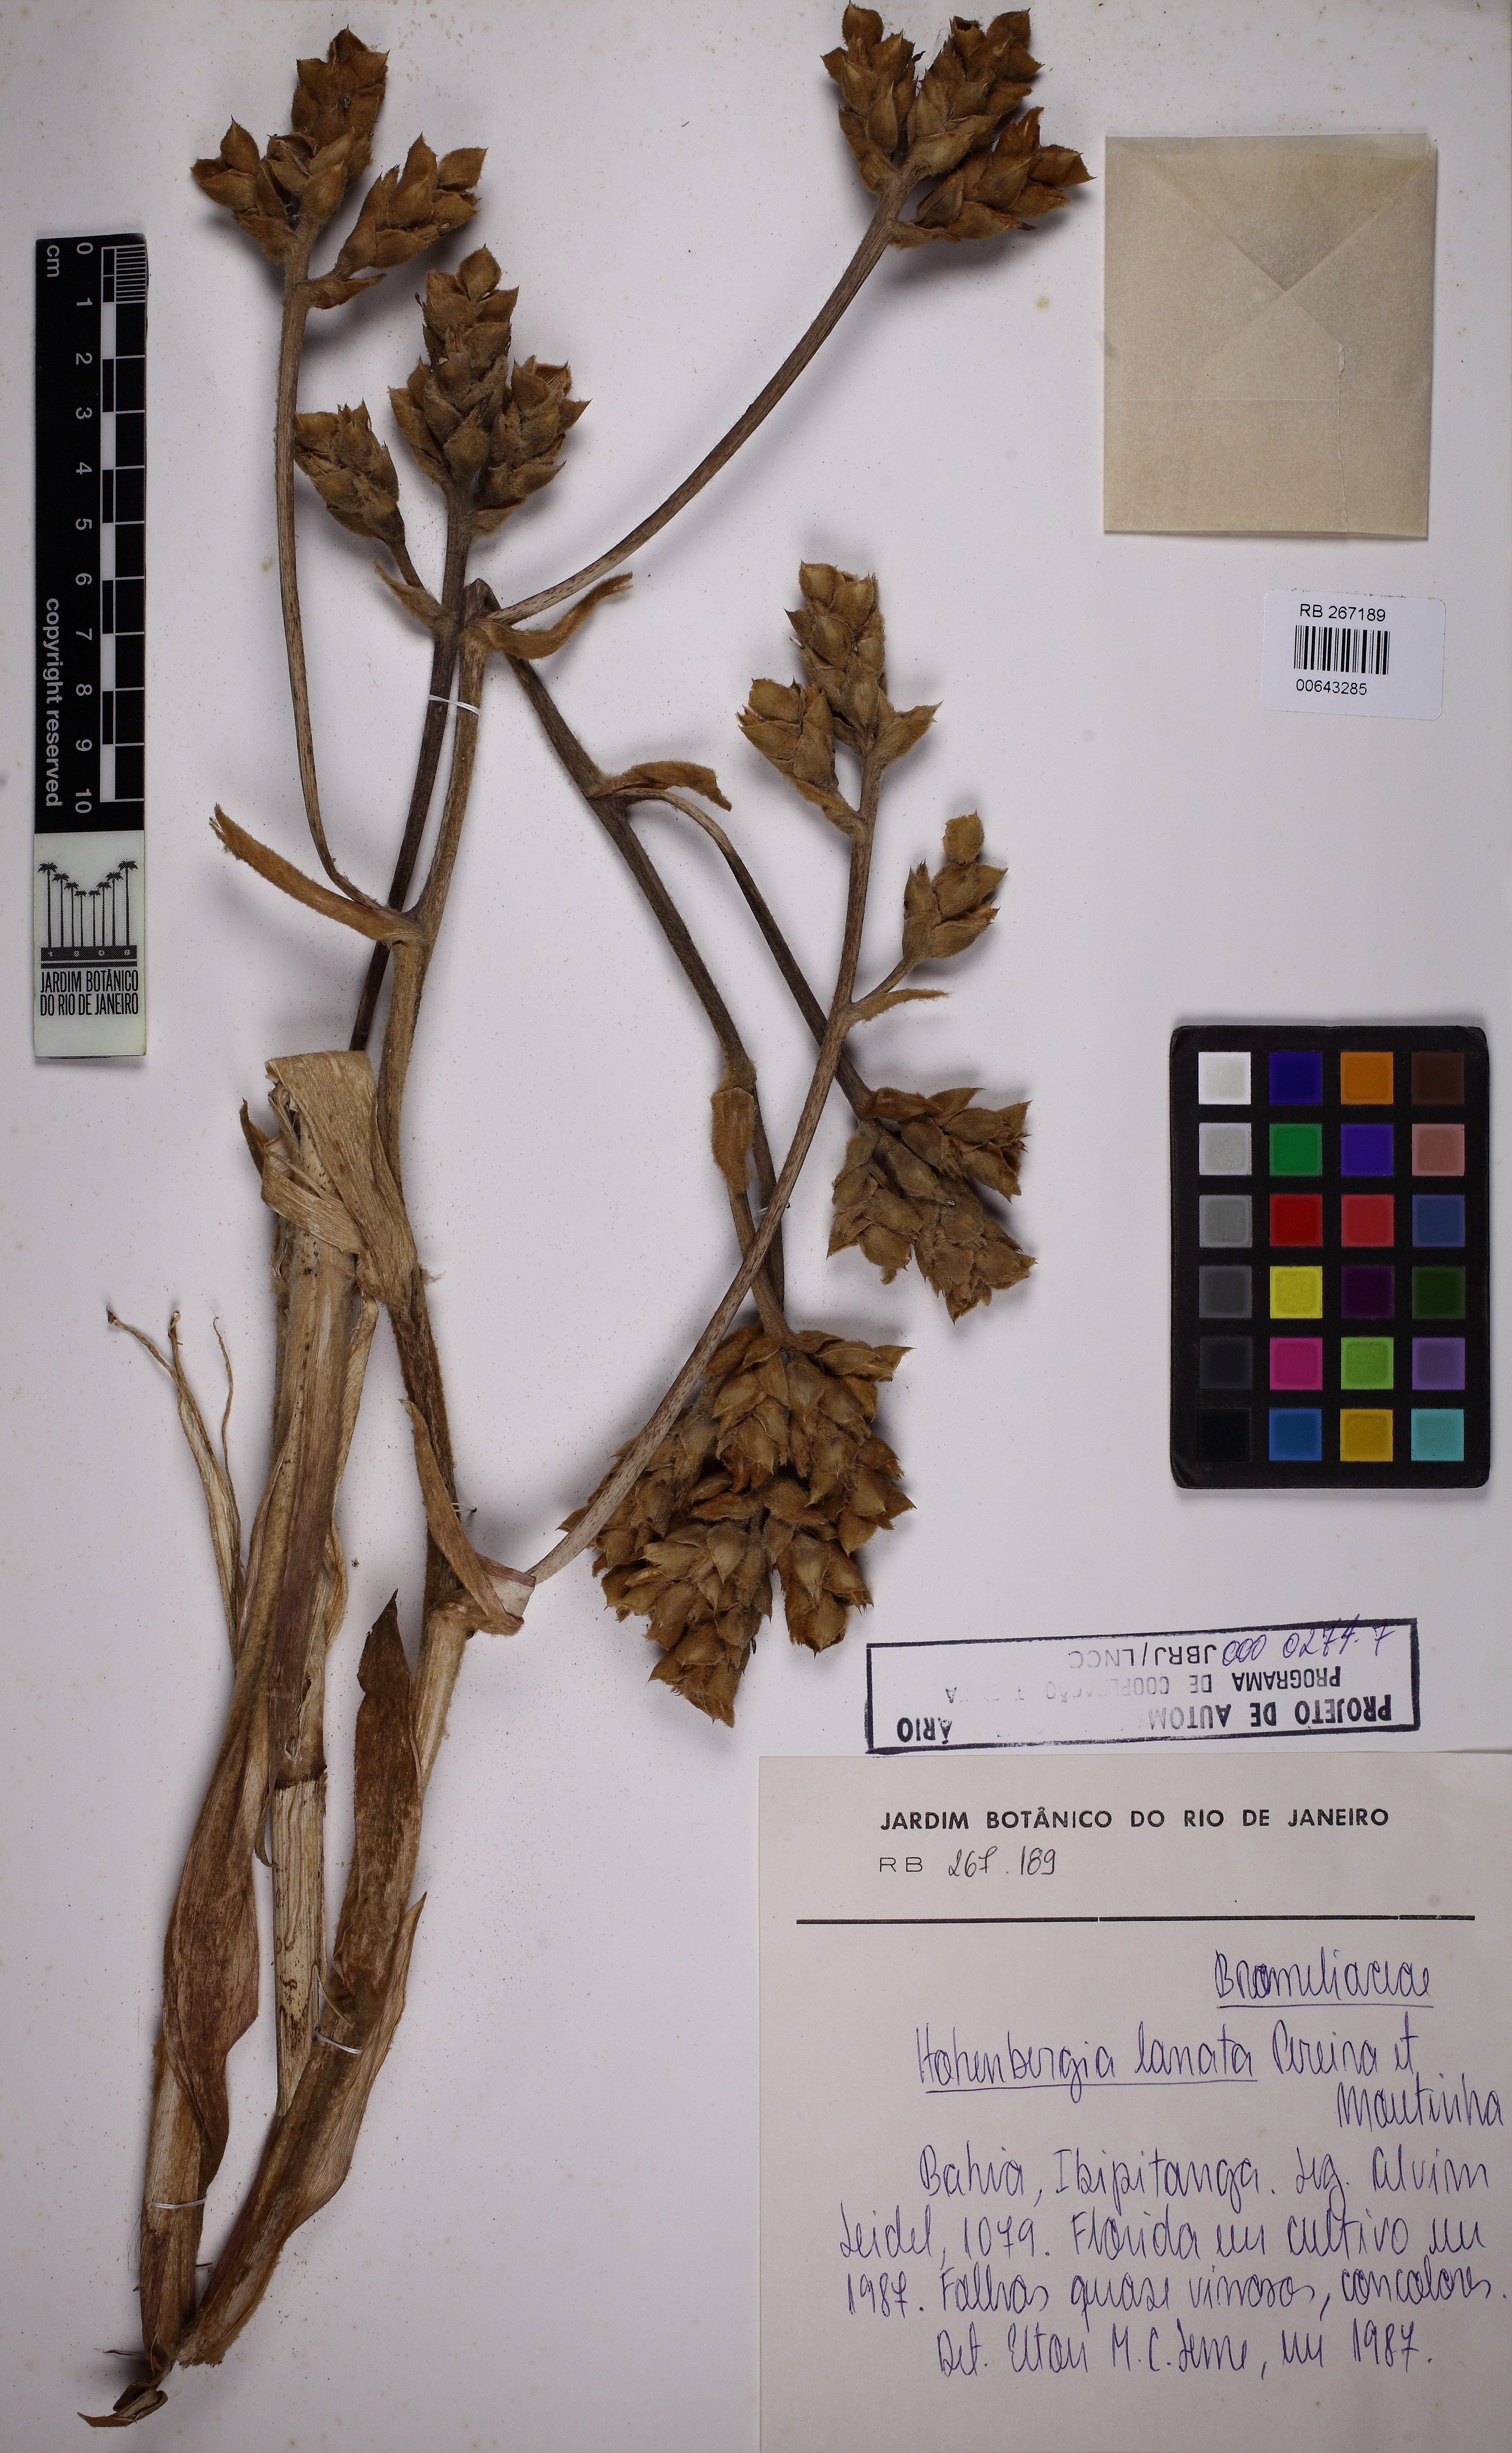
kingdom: Plantae
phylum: Tracheophyta
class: Liliopsida
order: Poales
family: Bromeliaceae
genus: Hohenbergia
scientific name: Hohenbergia lanata
